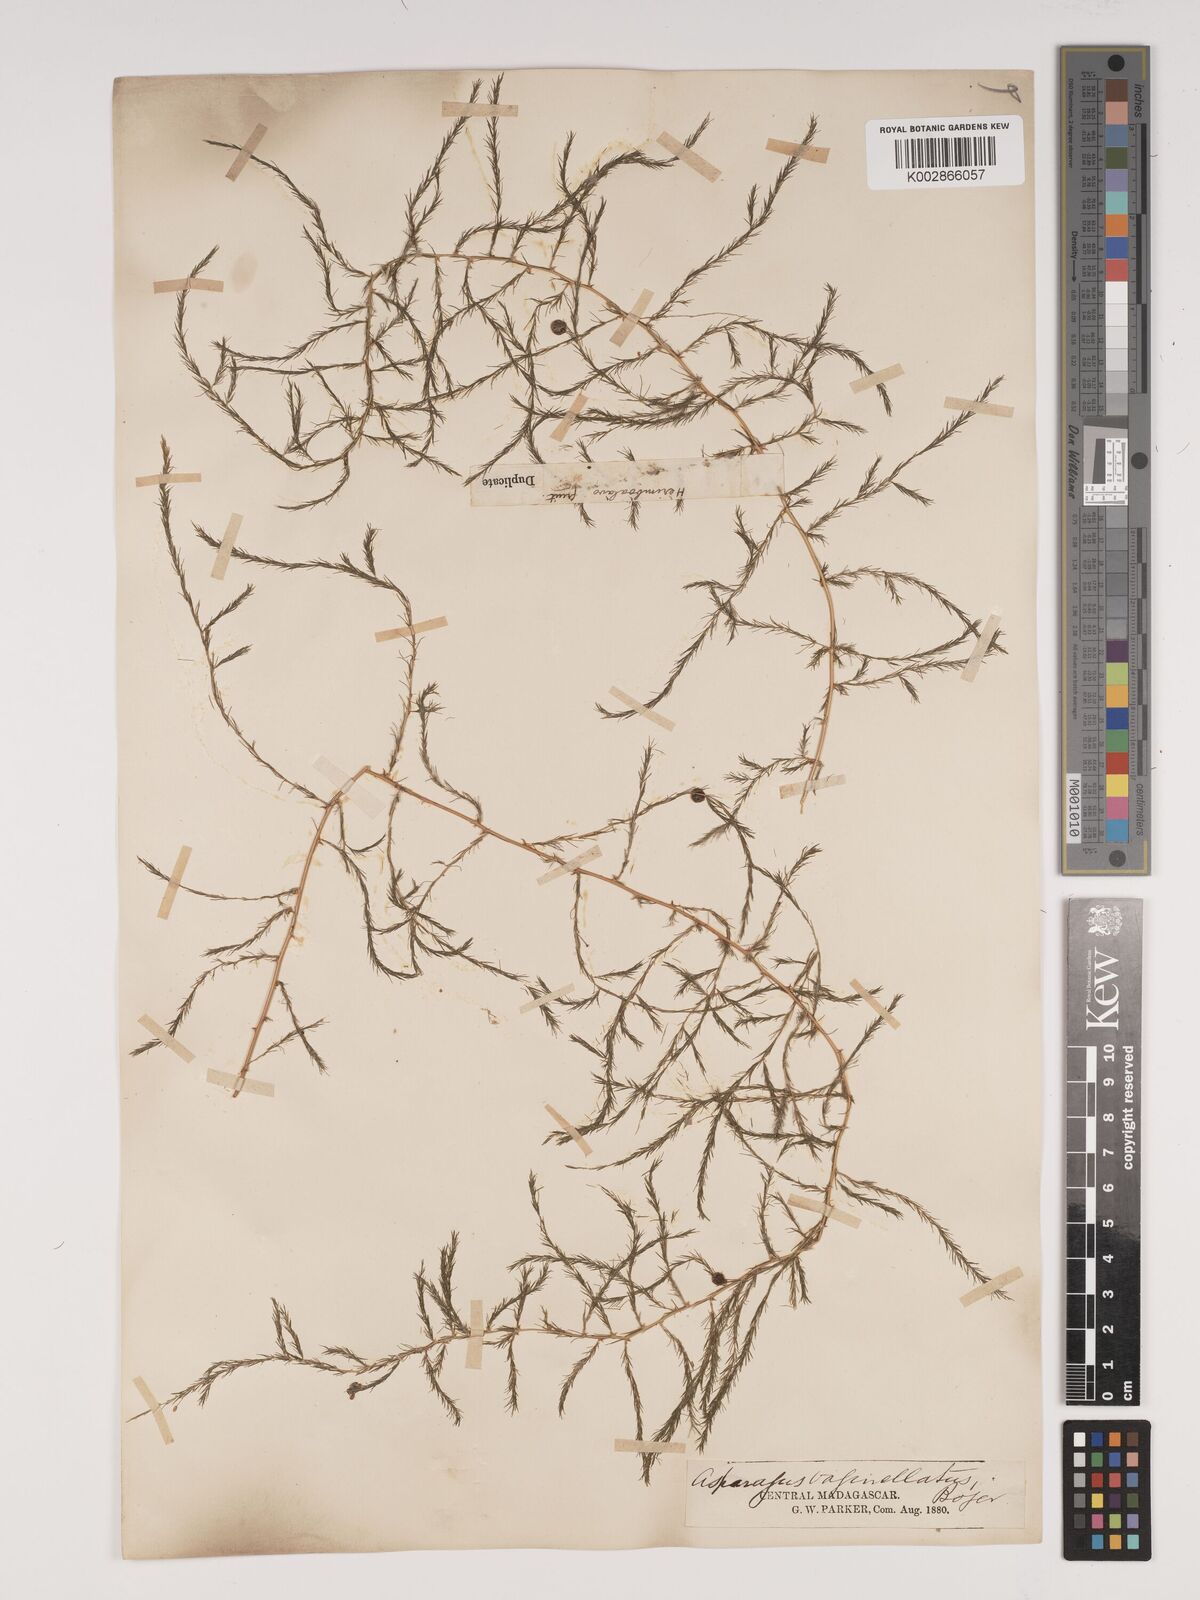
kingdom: Plantae
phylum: Tracheophyta
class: Liliopsida
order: Asparagales
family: Asparagaceae
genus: Asparagus
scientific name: Asparagus vaginellatus
